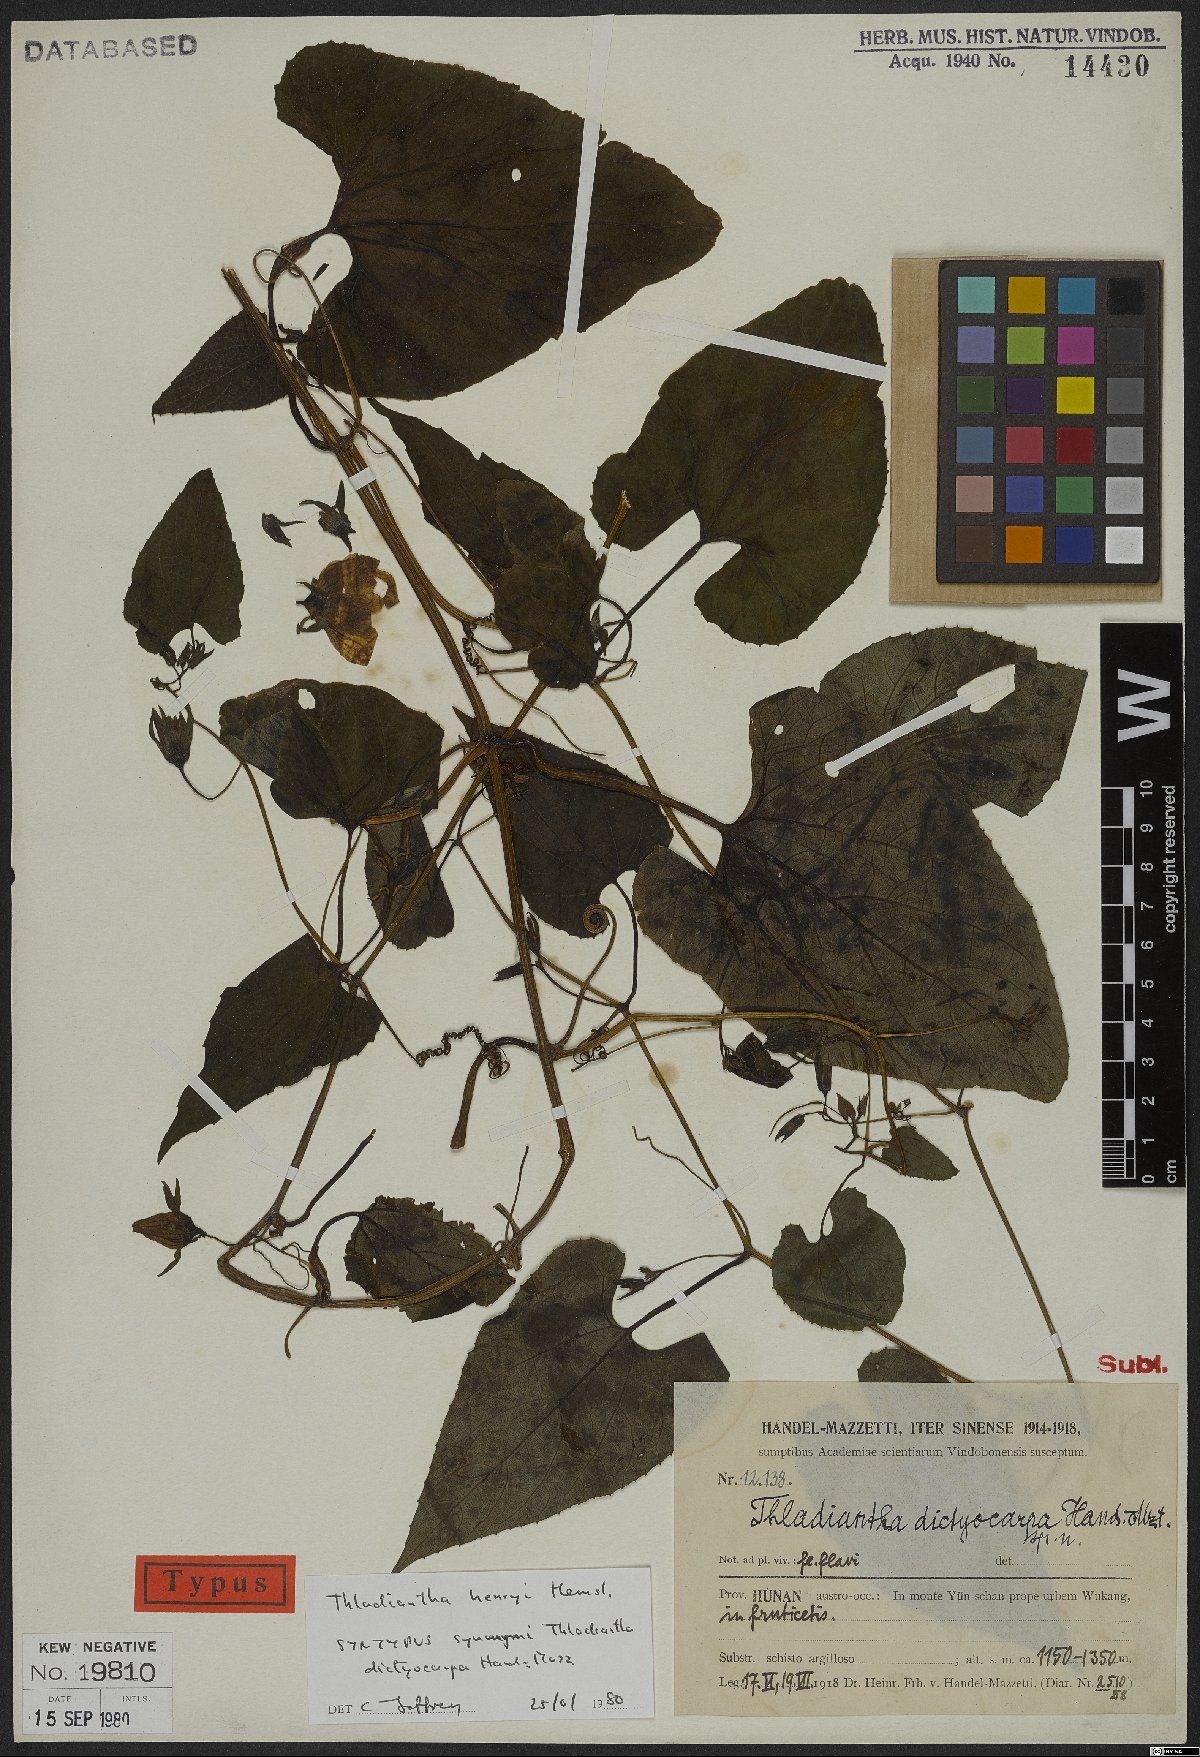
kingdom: Plantae
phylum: Tracheophyta
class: Magnoliopsida
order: Cucurbitales
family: Cucurbitaceae
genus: Thladiantha
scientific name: Thladiantha henryi
